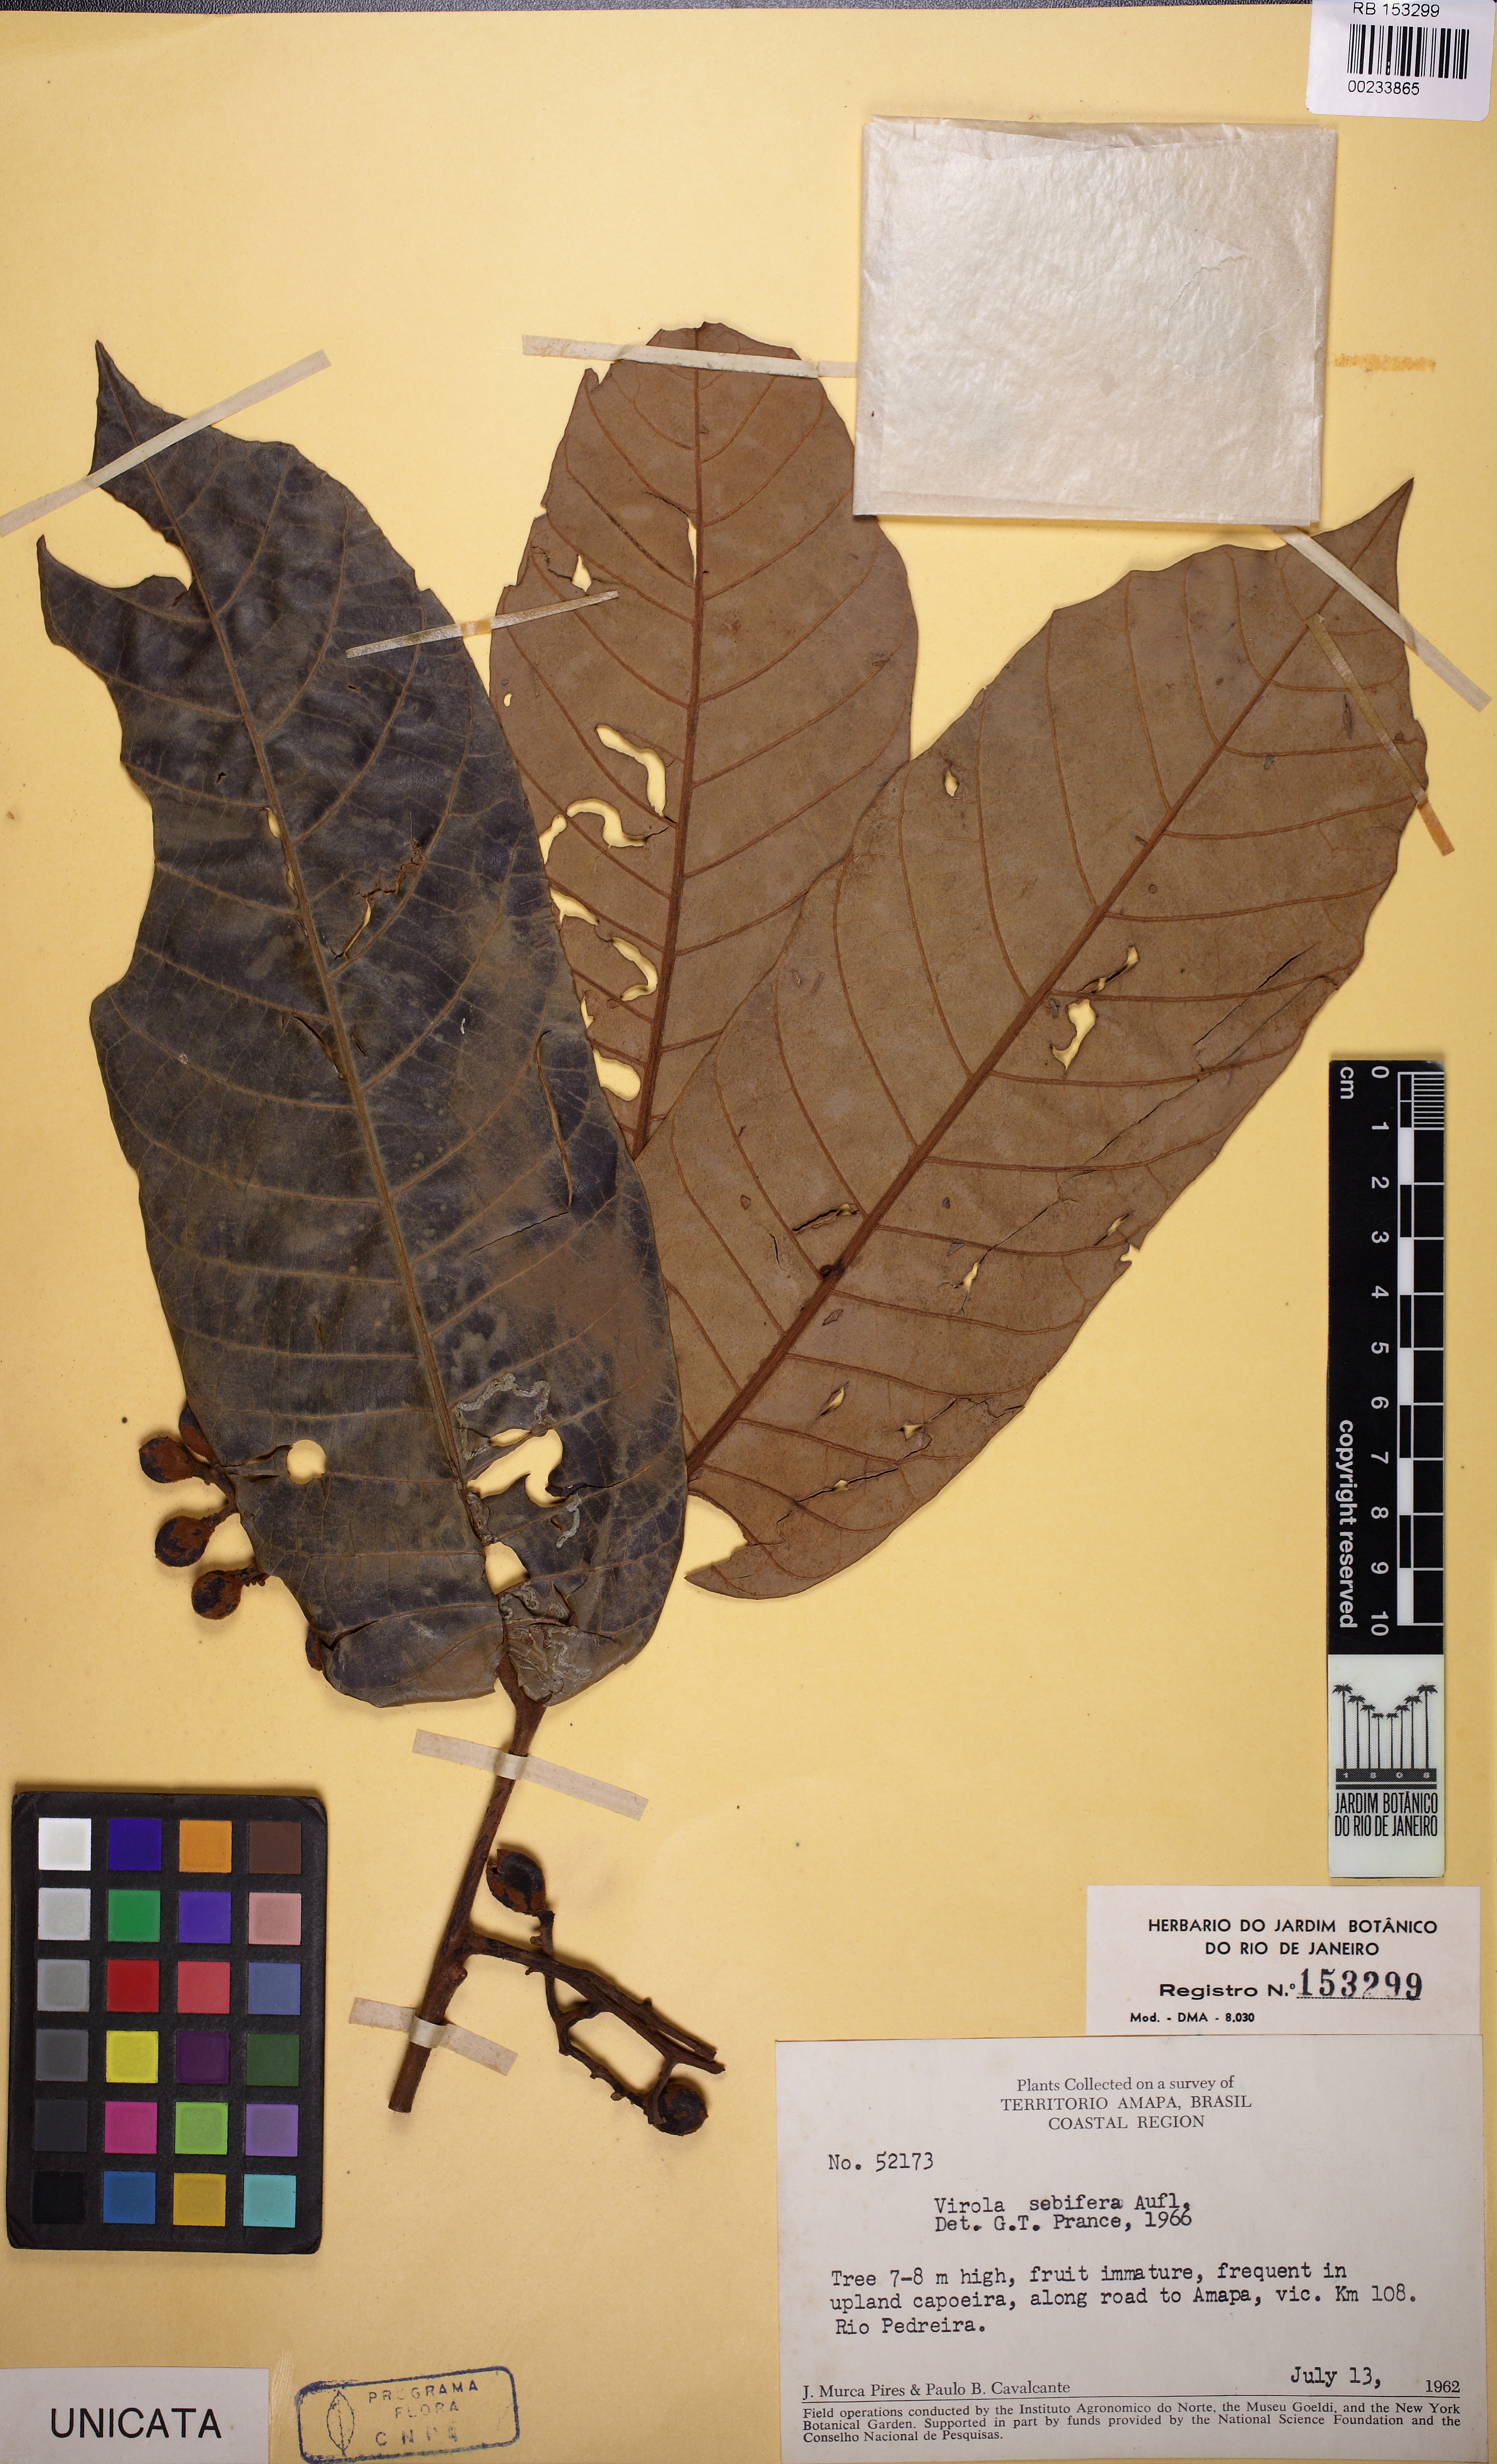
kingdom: Plantae
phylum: Tracheophyta
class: Magnoliopsida
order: Magnoliales
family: Myristicaceae
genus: Virola
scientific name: Virola sebifera
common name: Red ucuuba
